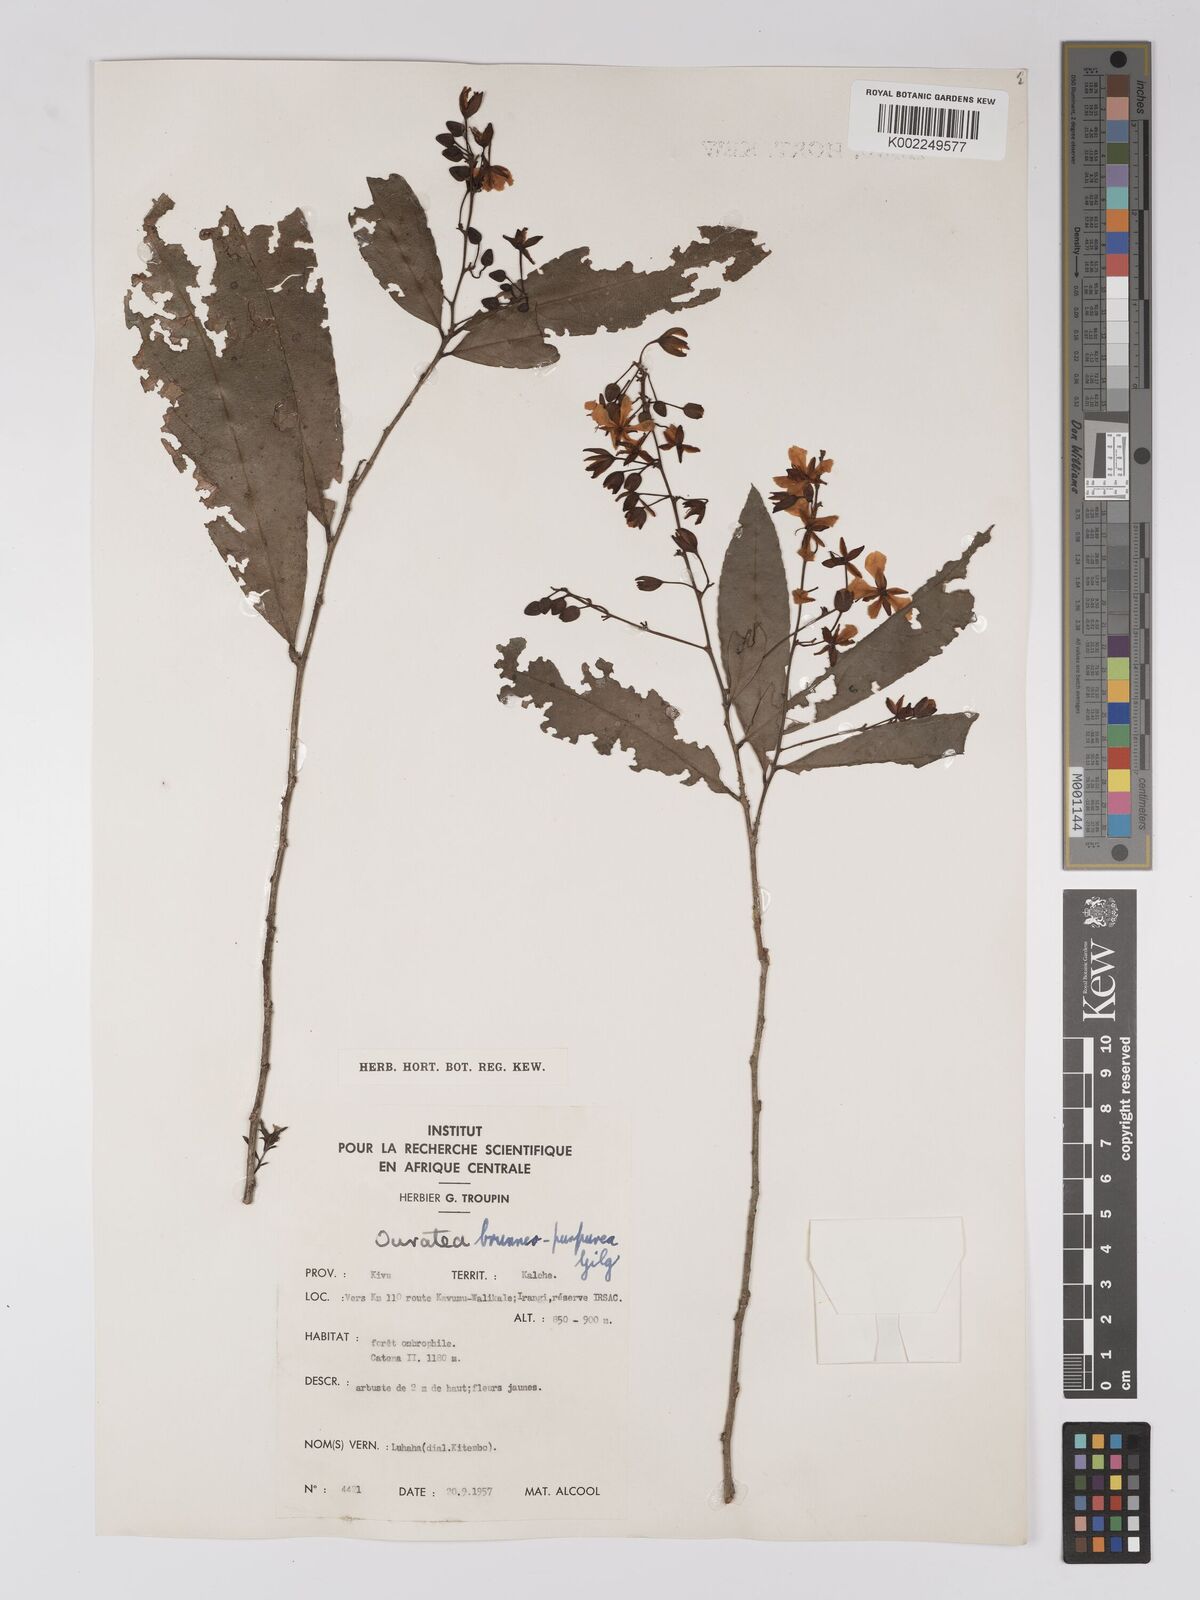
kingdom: Plantae
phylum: Tracheophyta
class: Magnoliopsida
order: Malpighiales
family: Ochnaceae
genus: Campylospermum
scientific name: Campylospermum reticulatum
